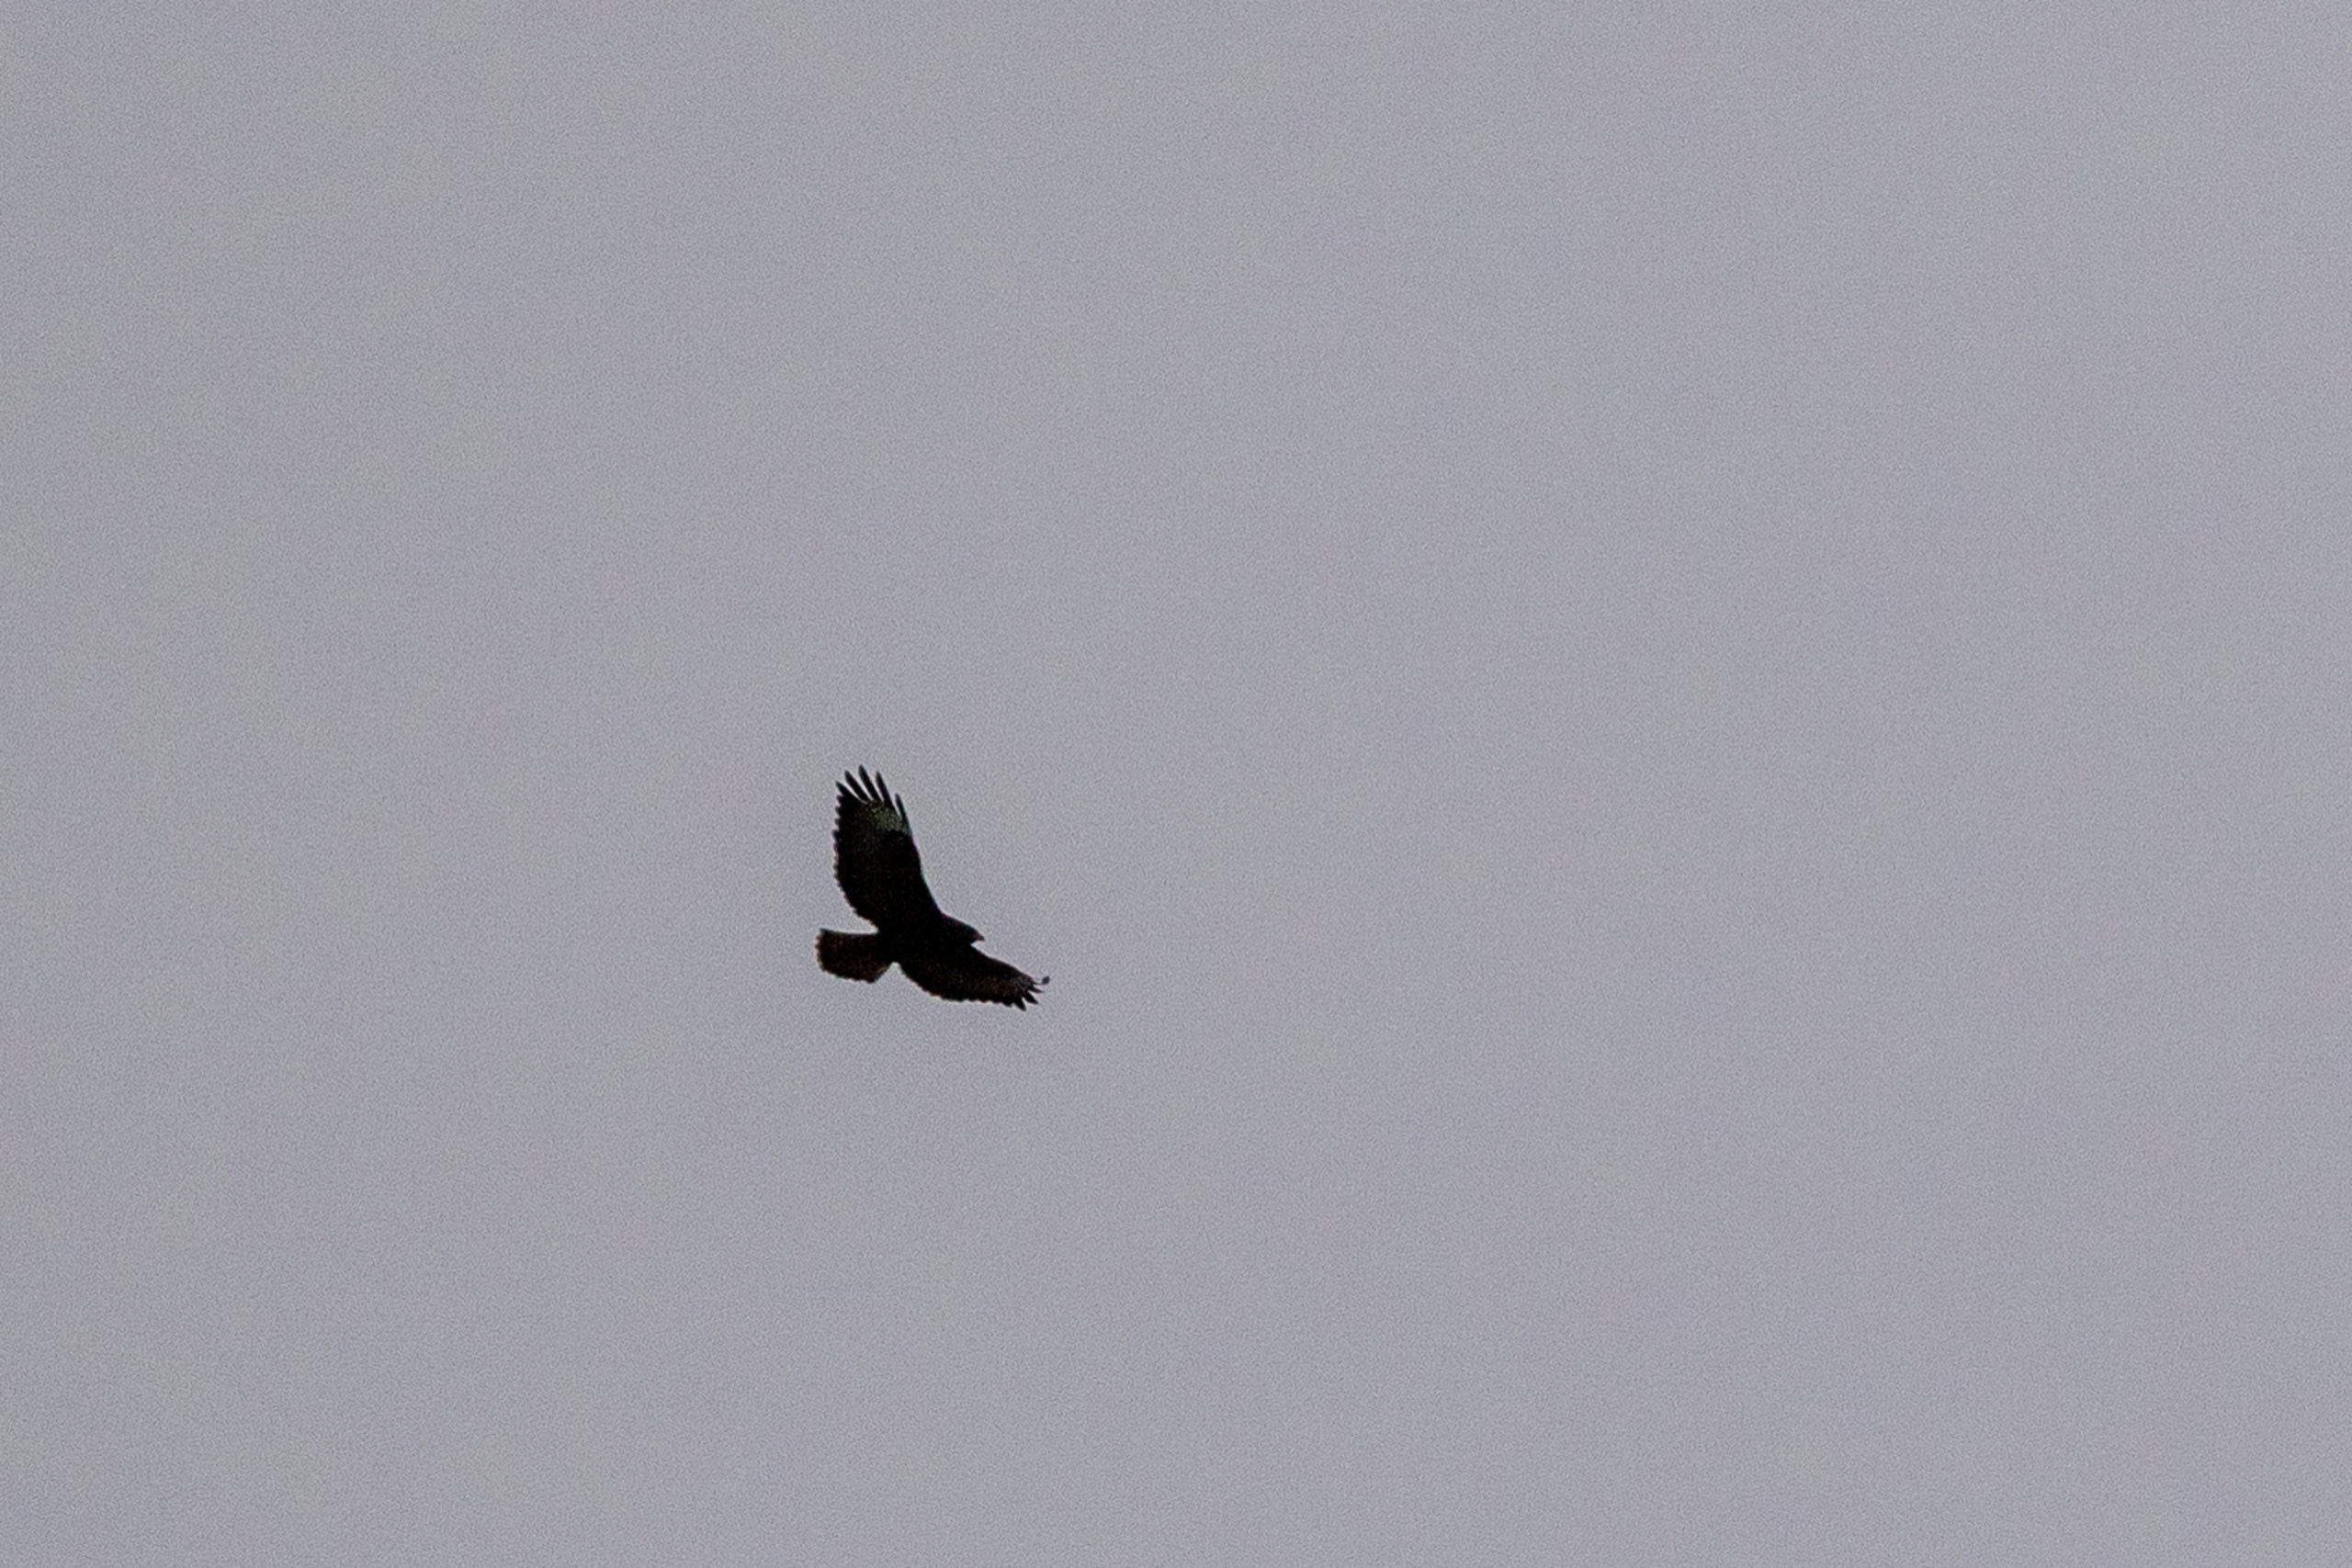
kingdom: Animalia
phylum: Chordata
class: Aves
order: Accipitriformes
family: Accipitridae
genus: Buteo
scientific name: Buteo buteo
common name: Musvåge
